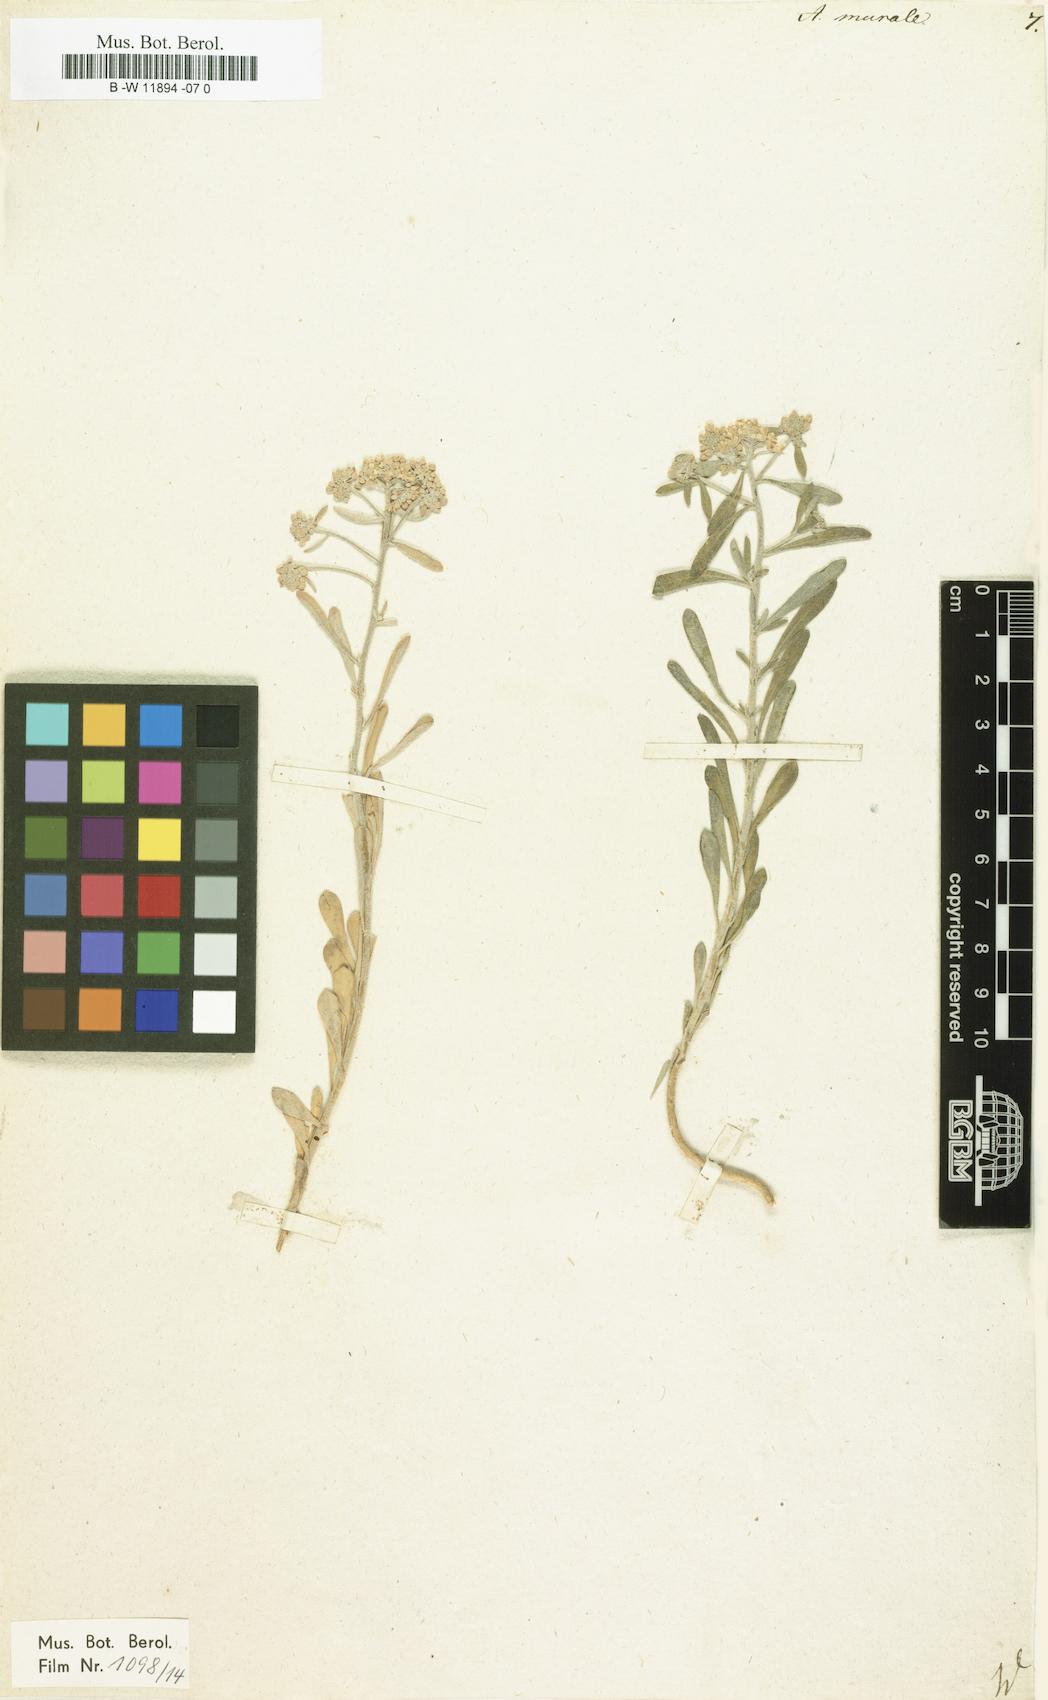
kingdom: Plantae
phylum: Tracheophyta
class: Magnoliopsida
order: Brassicales
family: Brassicaceae
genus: Odontarrhena
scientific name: Odontarrhena muralis
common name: Rock alyssum
